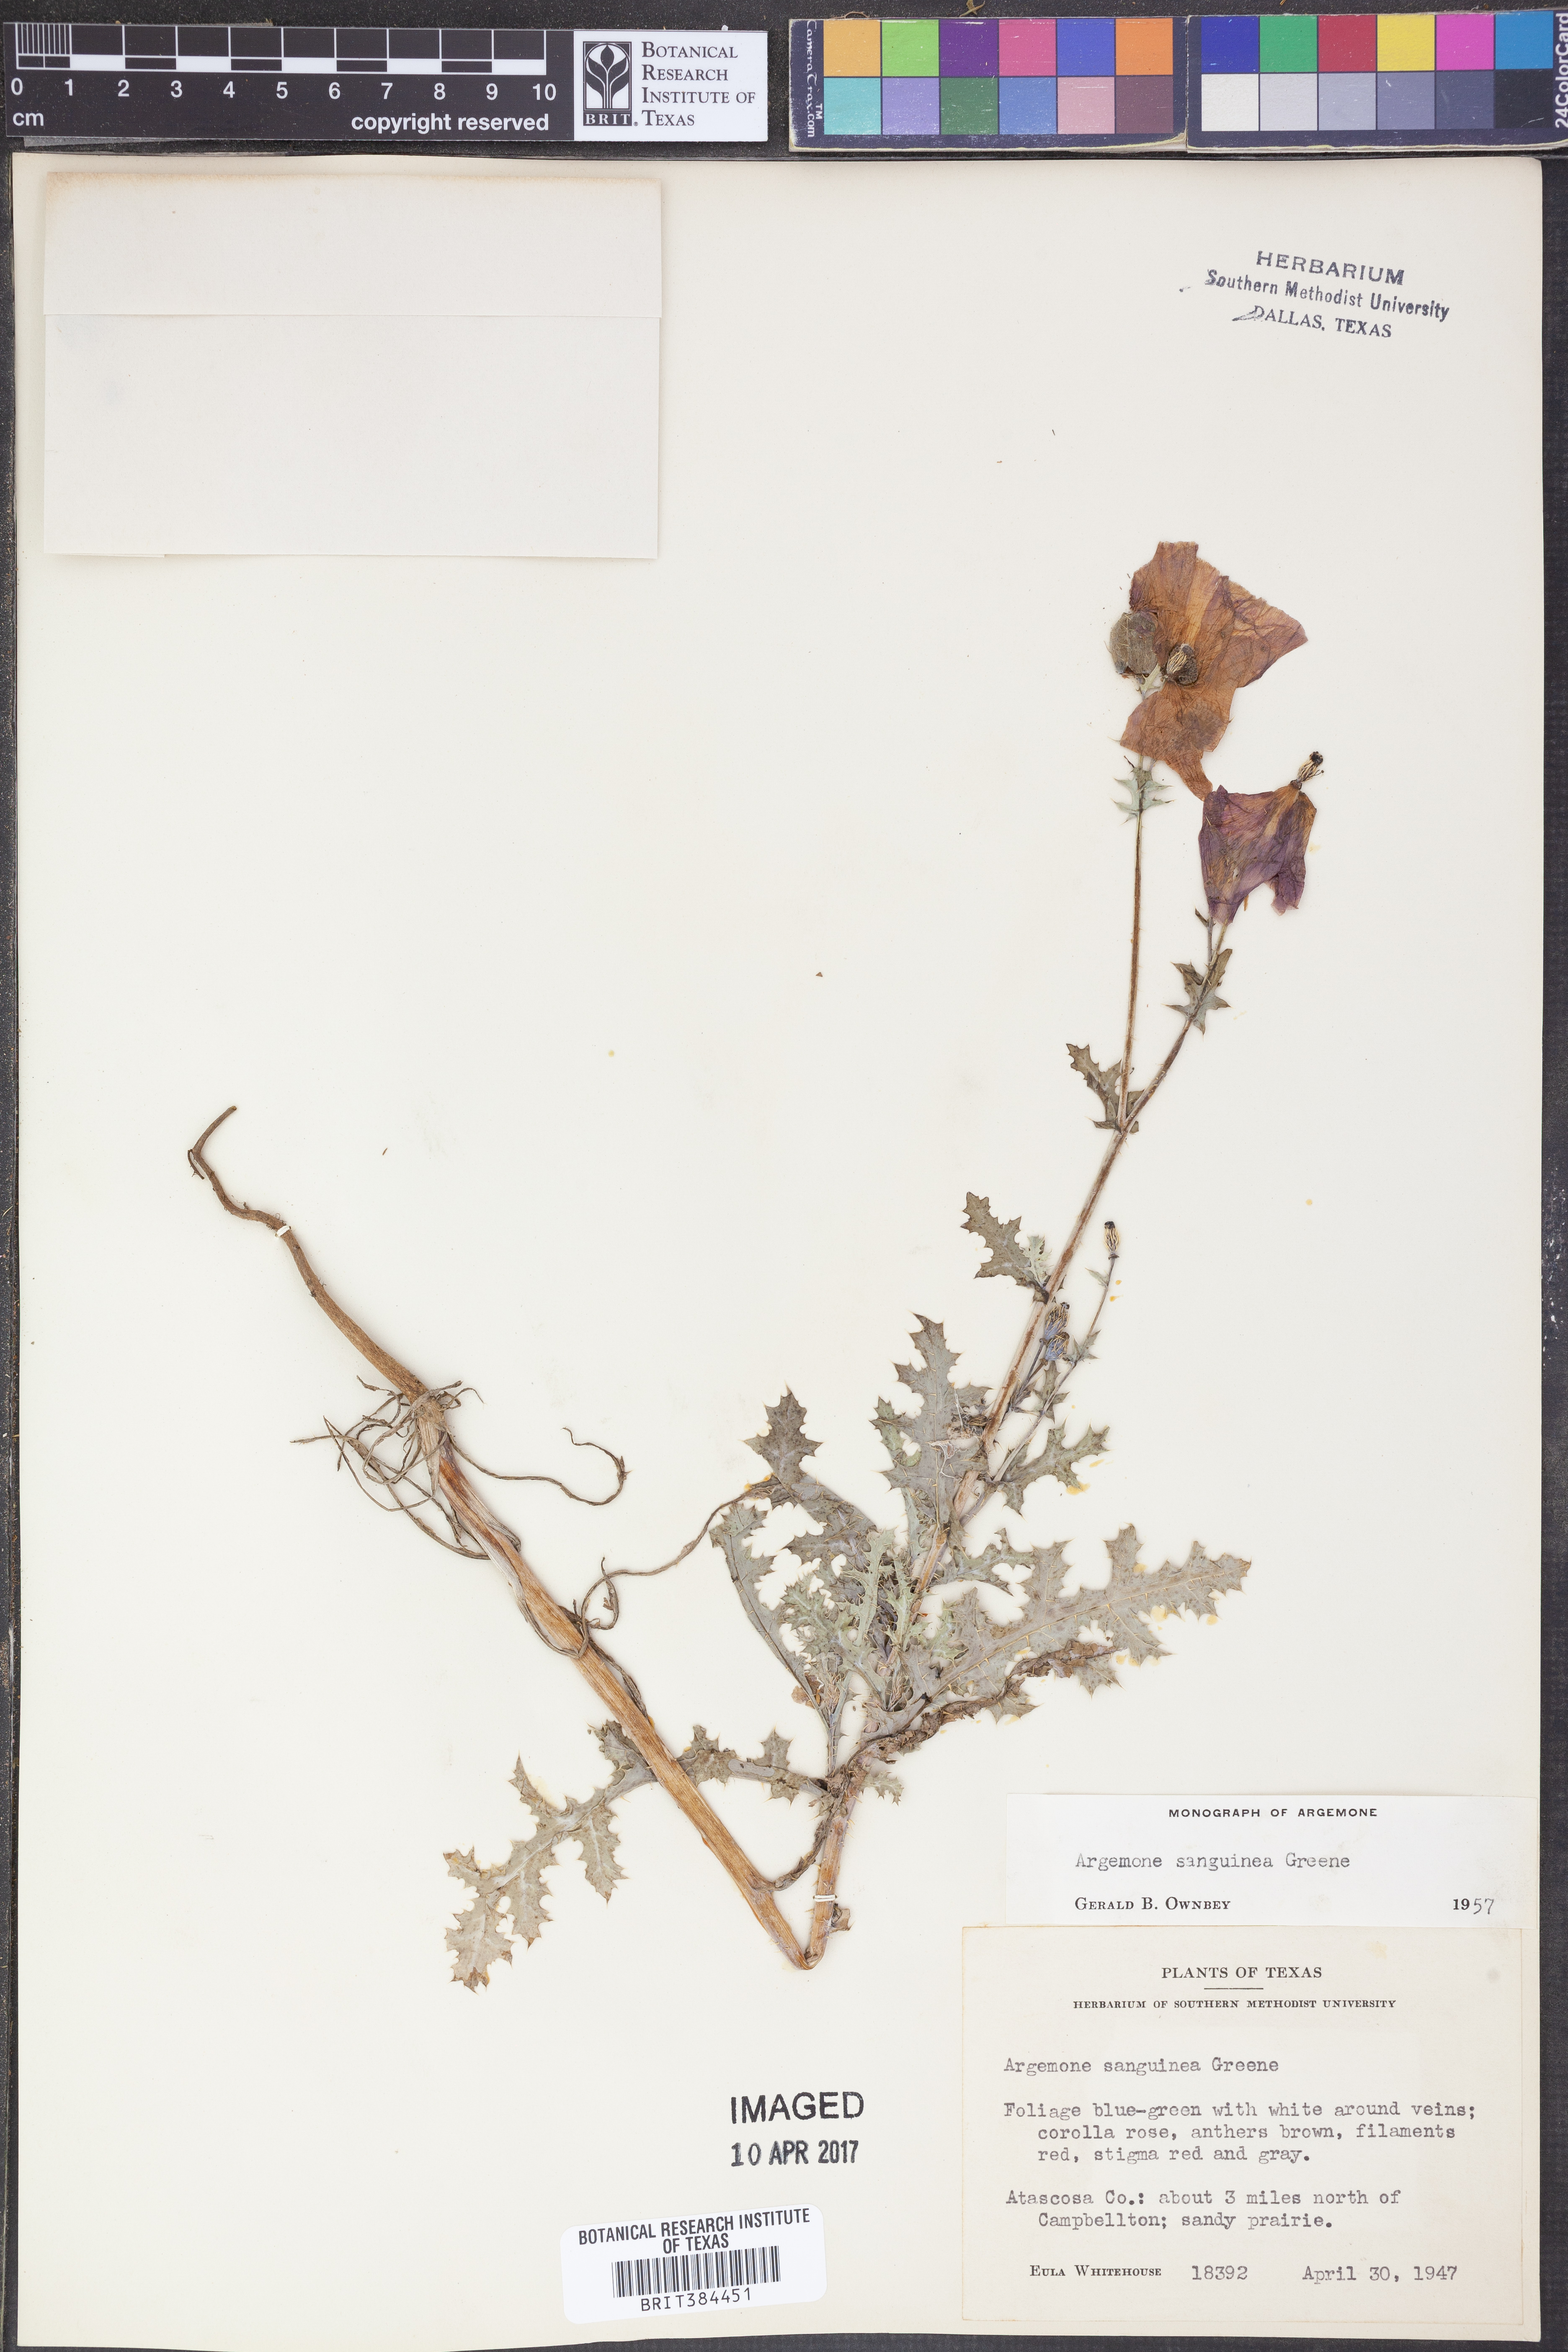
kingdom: Plantae
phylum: Tracheophyta
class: Magnoliopsida
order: Ranunculales
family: Papaveraceae
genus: Argemone
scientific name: Argemone sanguinea
